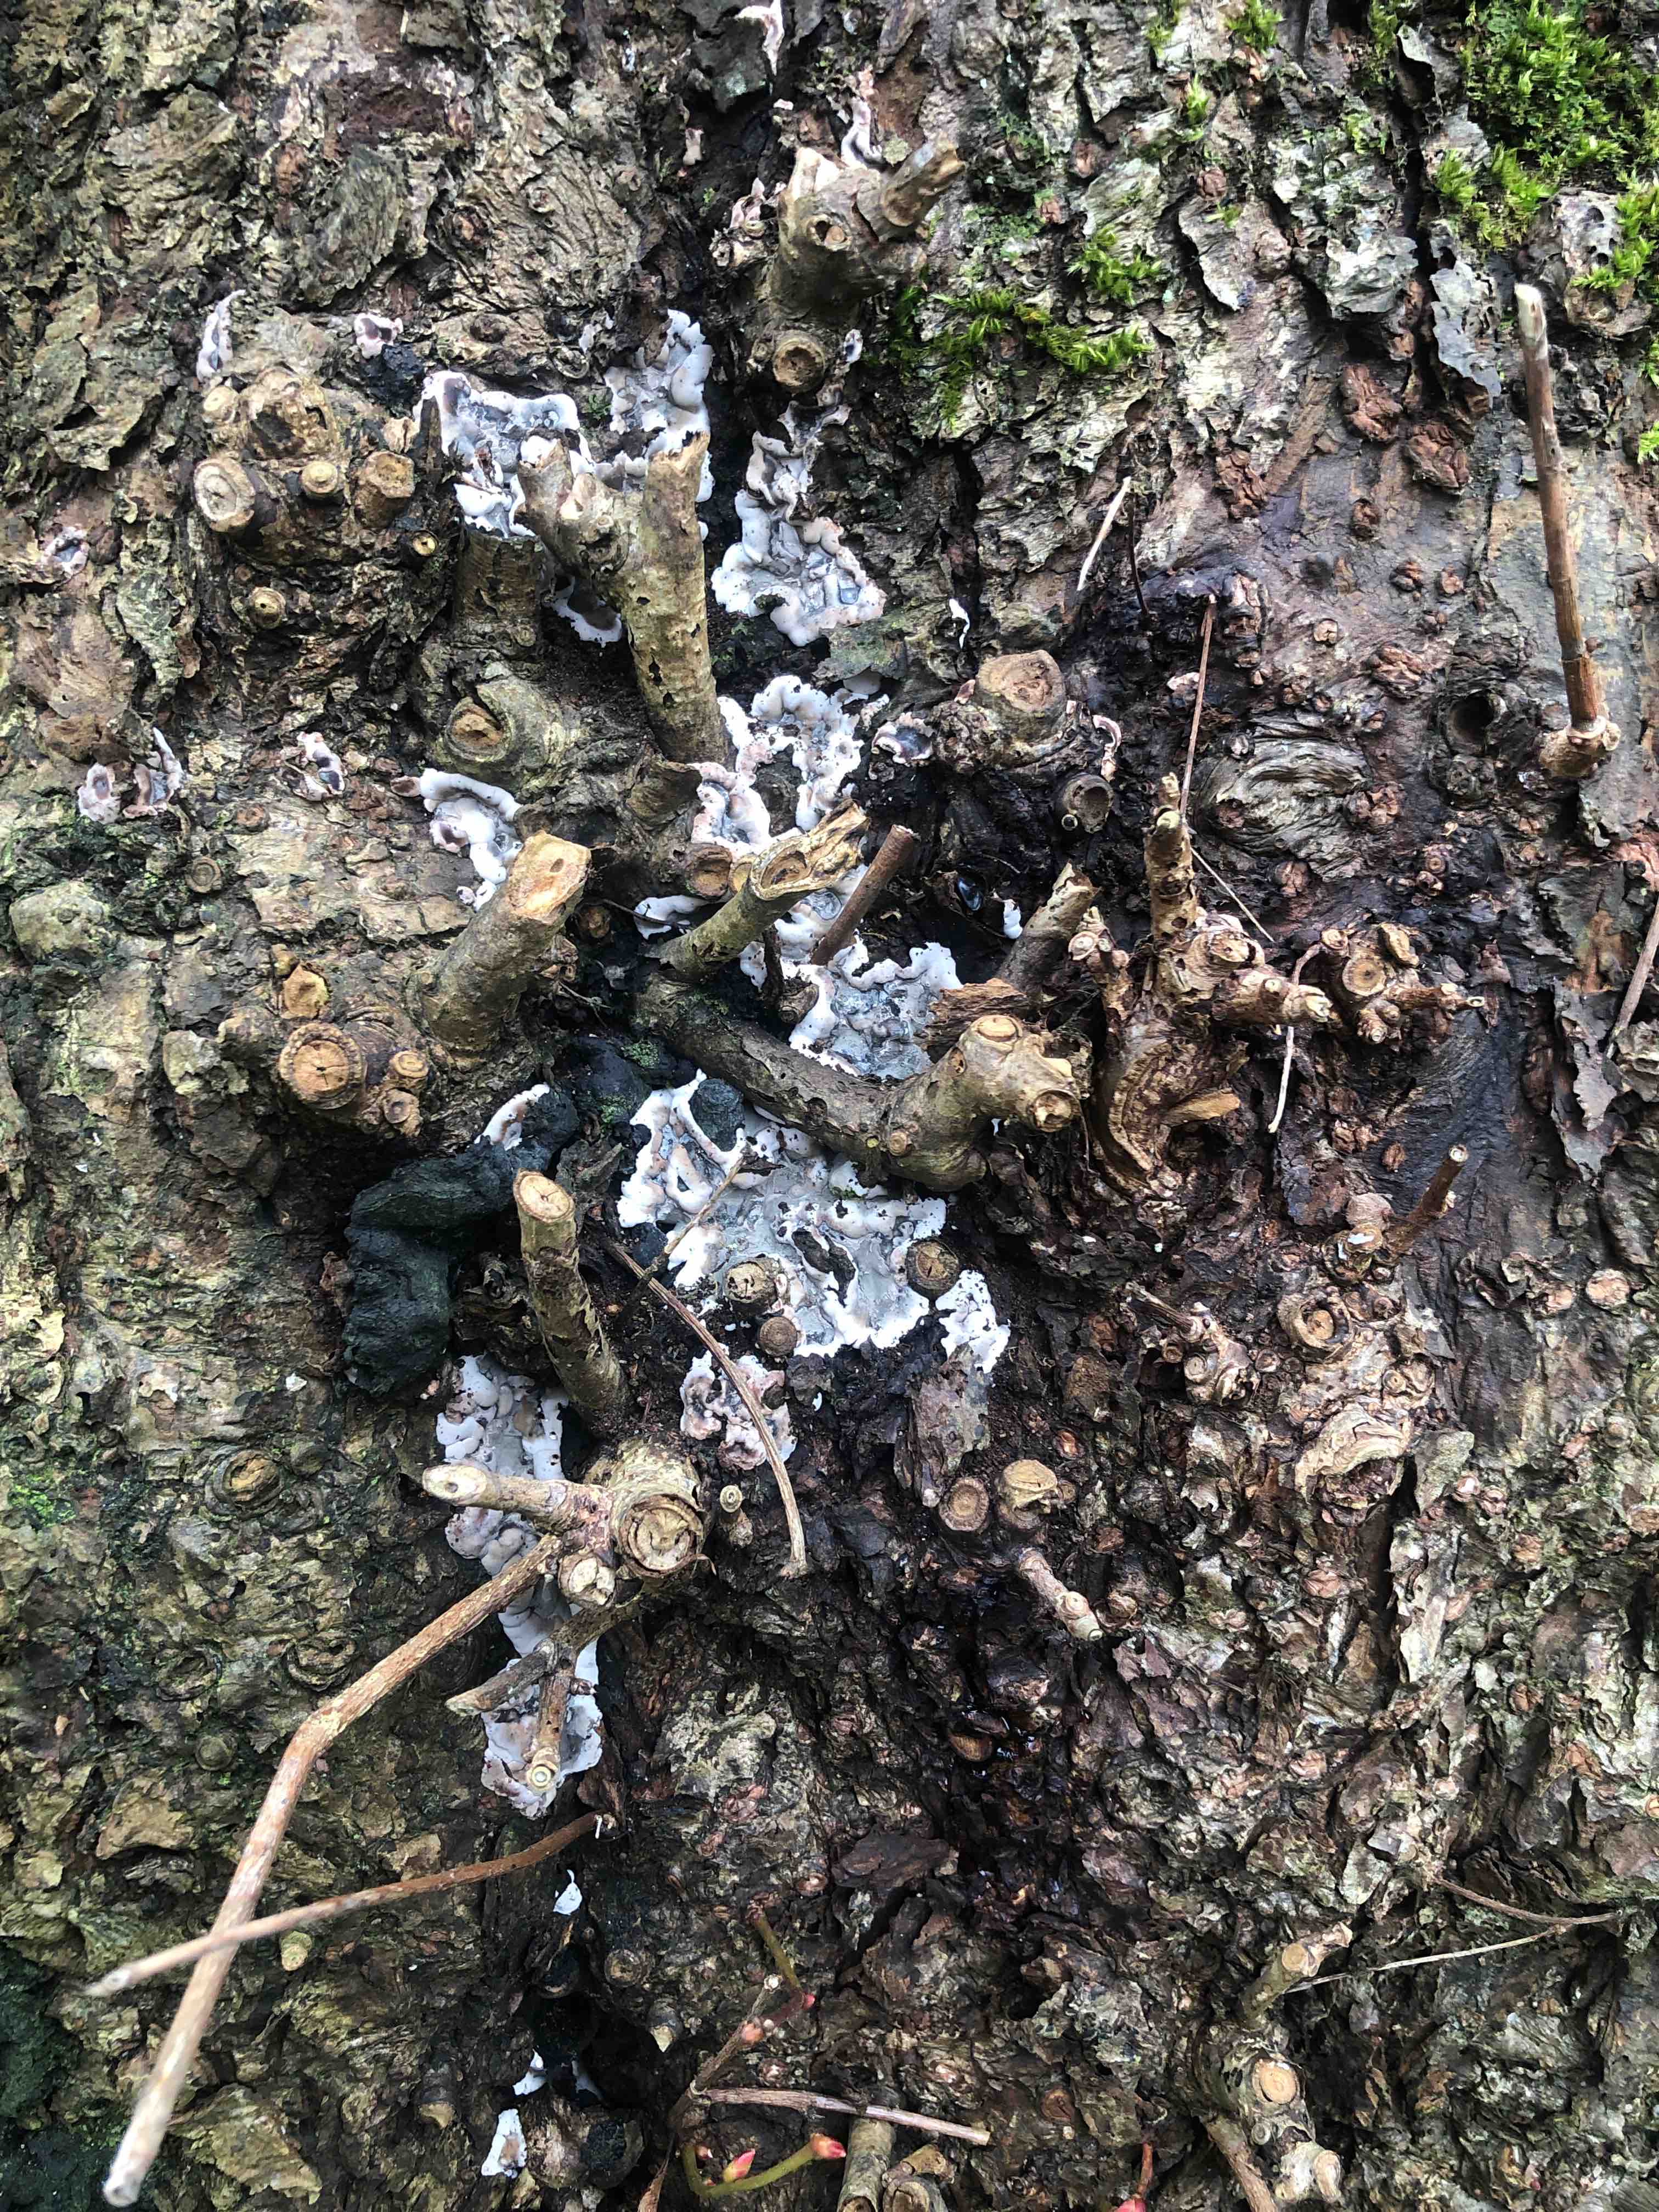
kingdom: Fungi
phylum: Ascomycota
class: Sordariomycetes
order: Xylariales
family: Xylariaceae
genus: Kretzschmaria
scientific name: Kretzschmaria deusta
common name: stor kulsvamp
